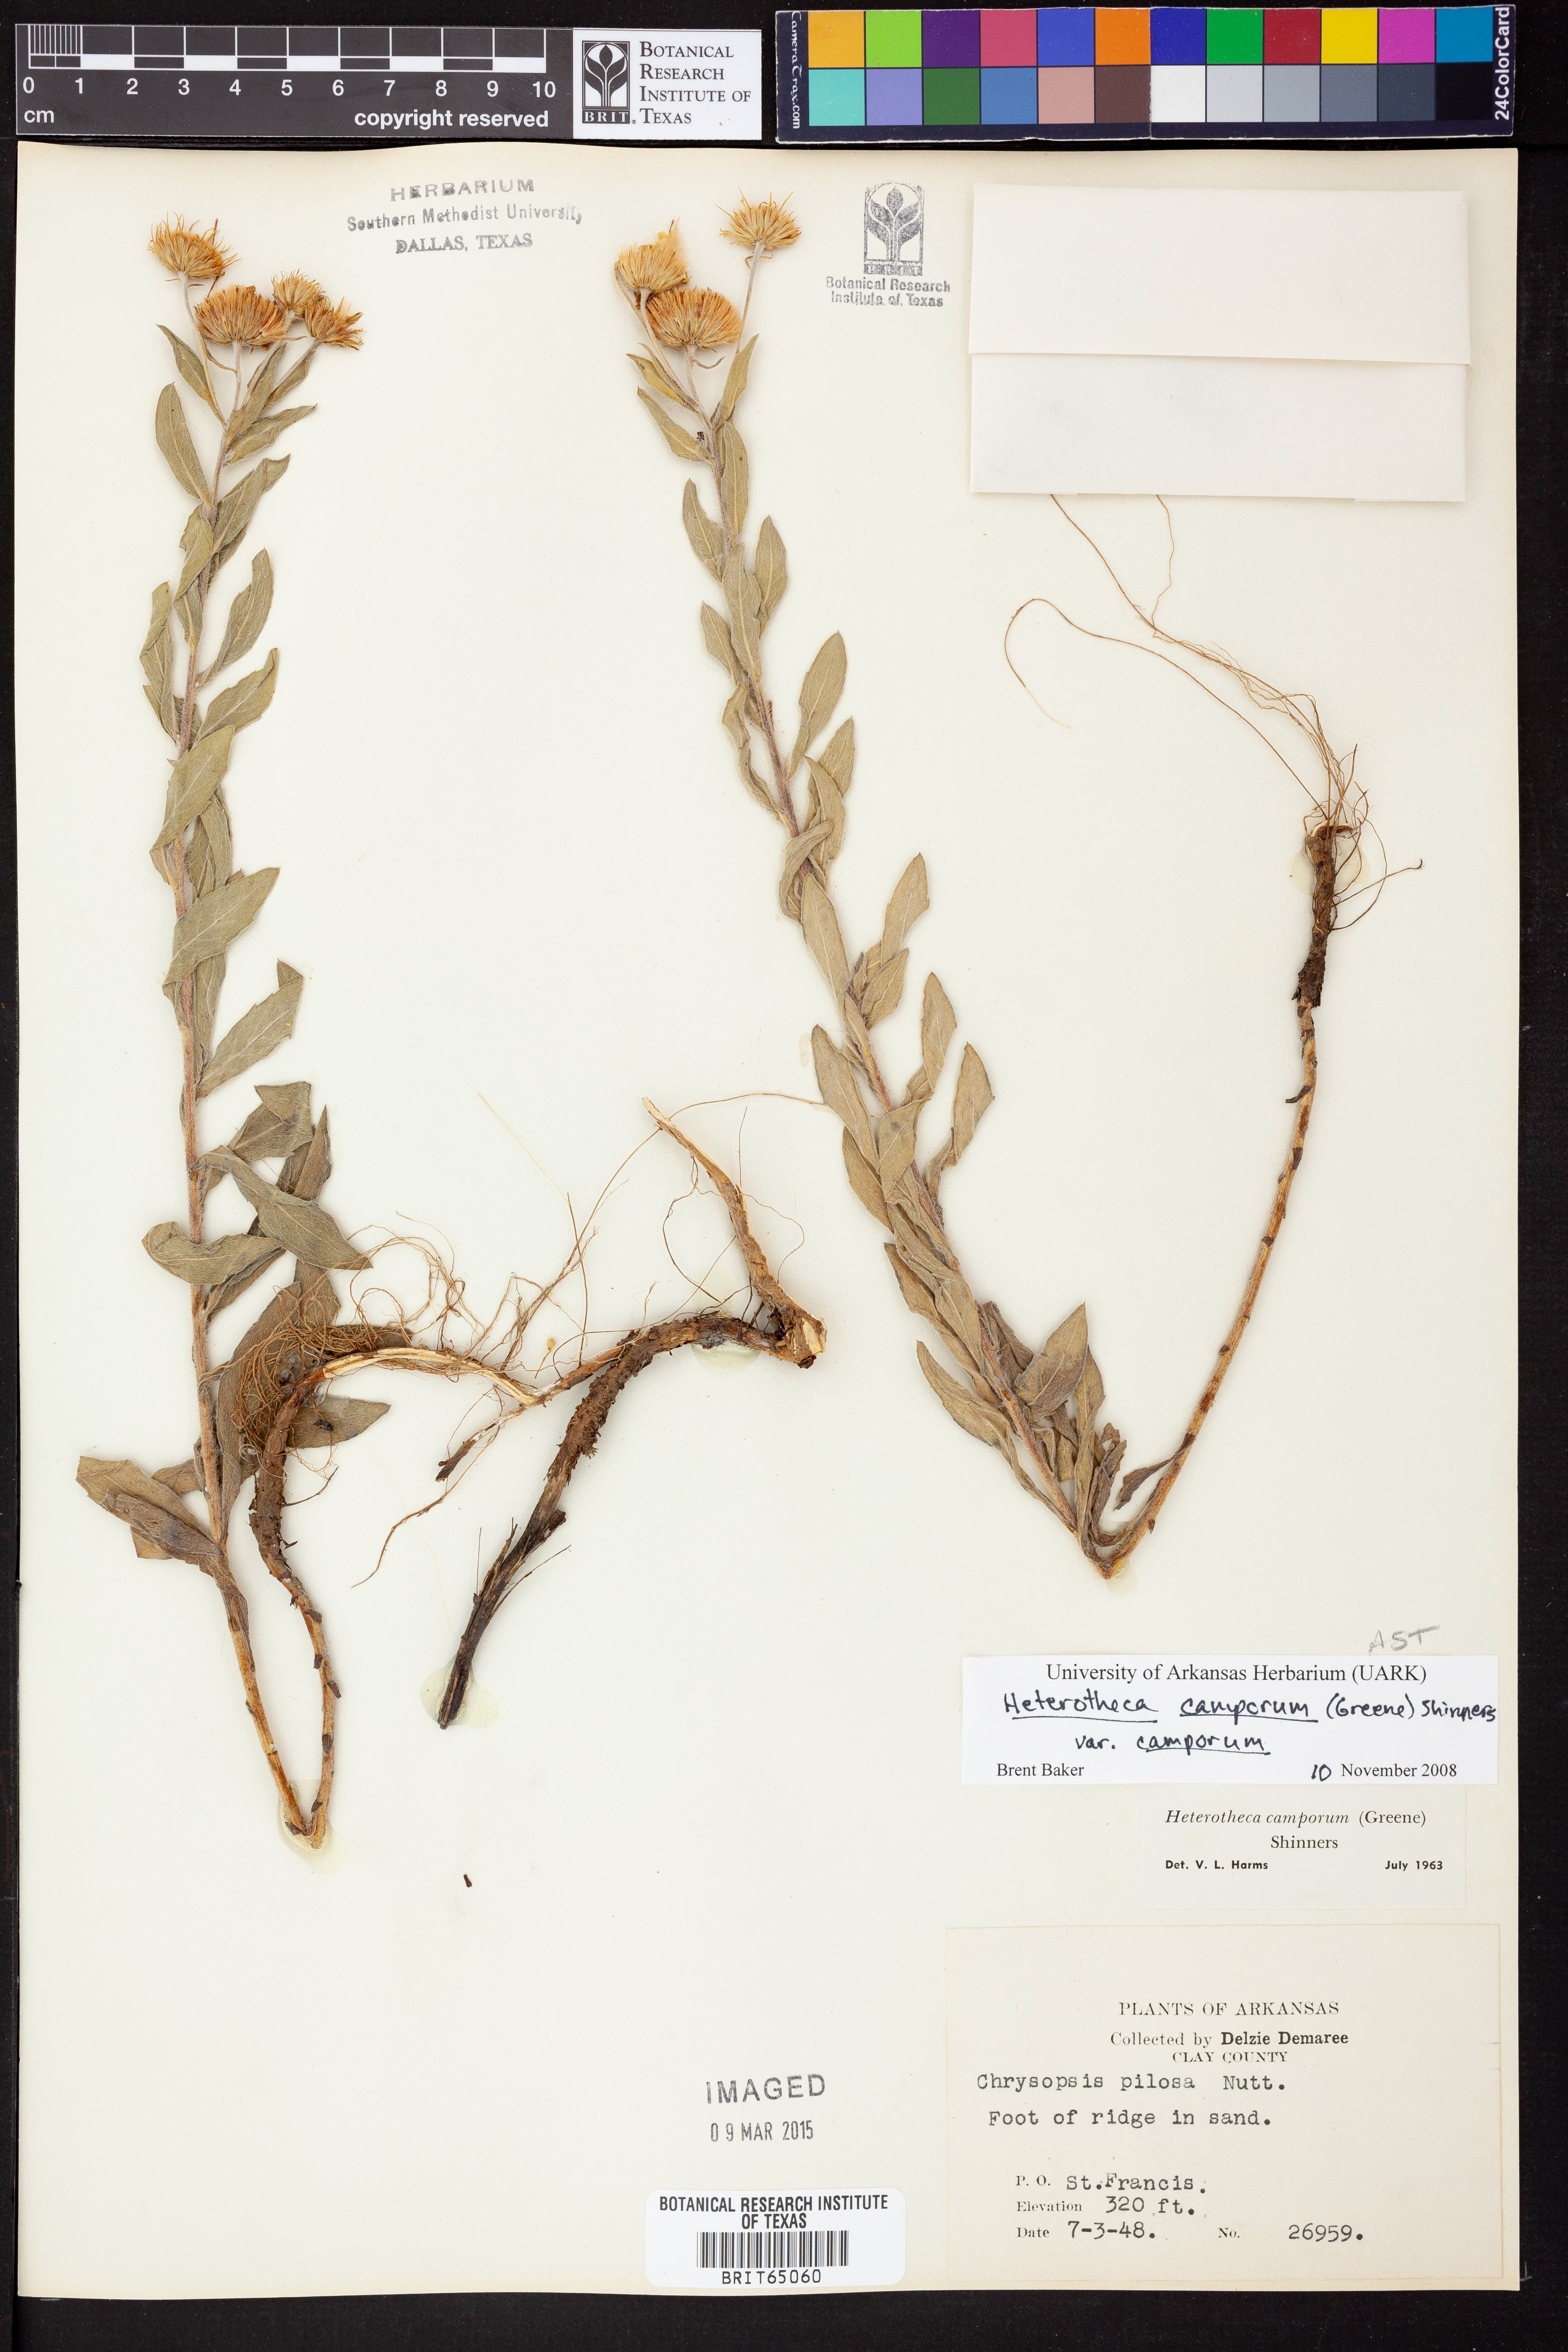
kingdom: Plantae
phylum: Tracheophyta
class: Magnoliopsida
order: Asterales
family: Asteraceae
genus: Heterotheca
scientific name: Heterotheca camporum
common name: Prairie golden-aster
